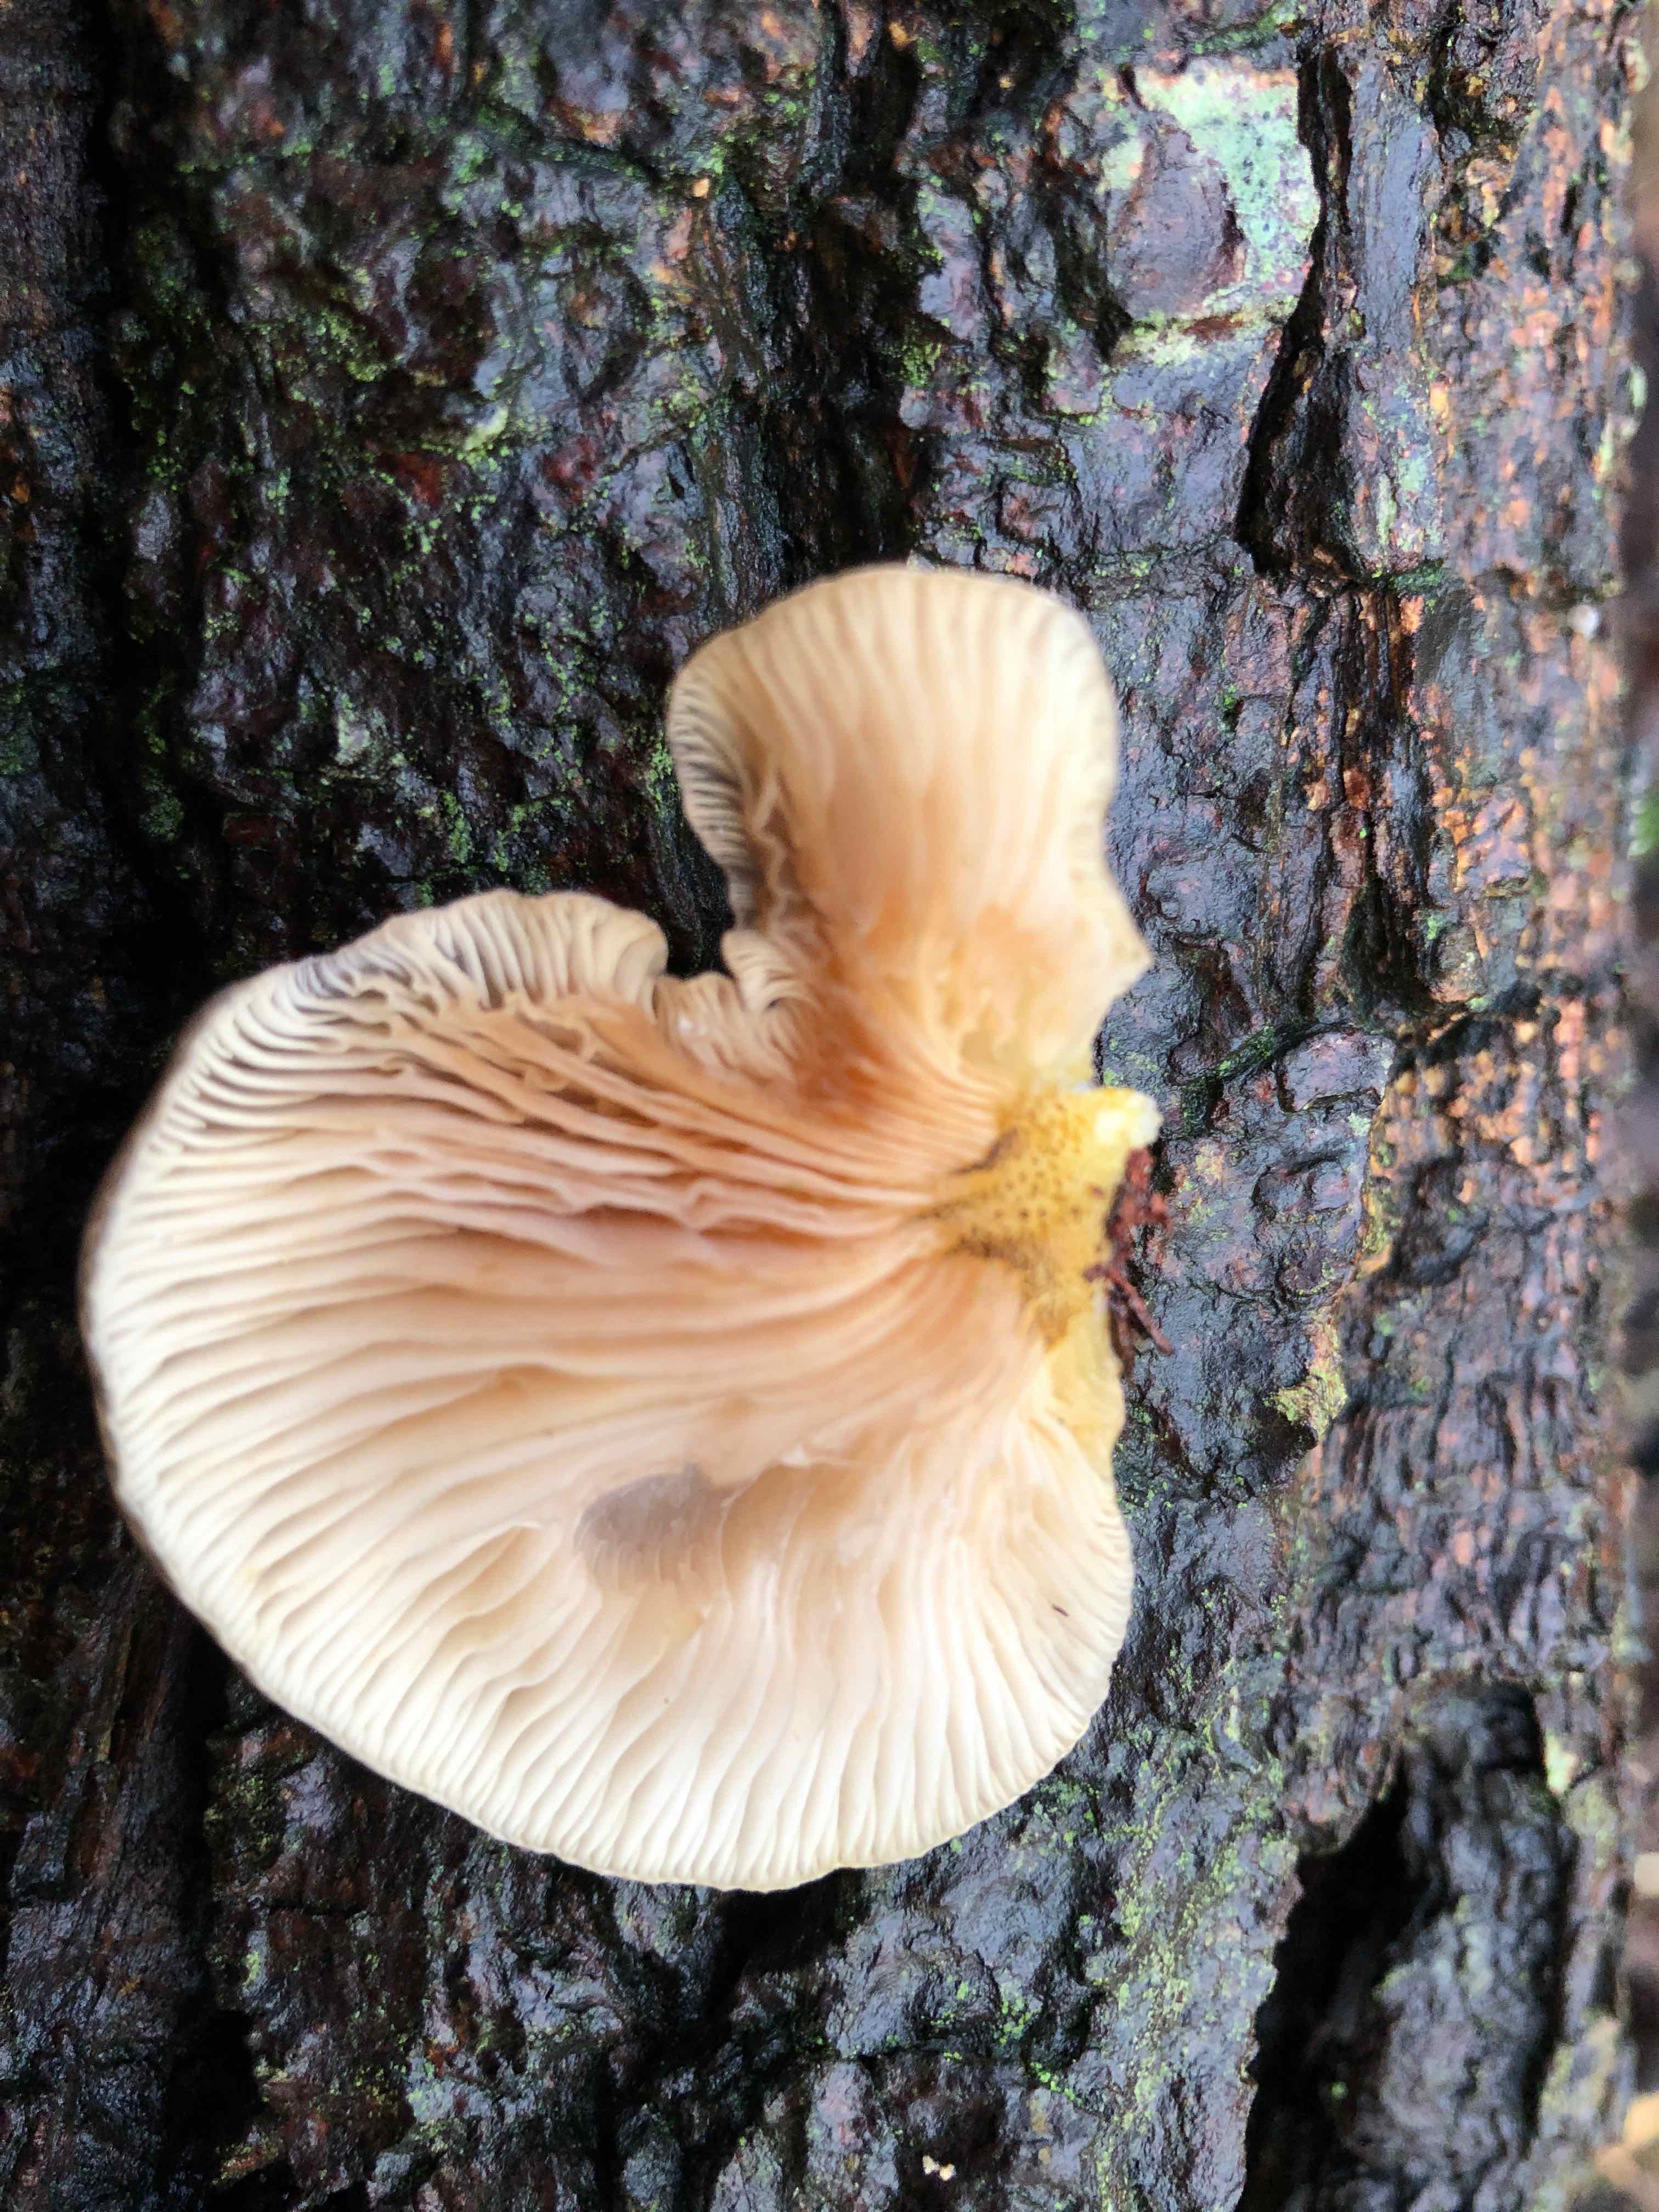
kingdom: Fungi
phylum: Basidiomycota
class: Agaricomycetes
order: Agaricales
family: Sarcomyxaceae
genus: Sarcomyxa
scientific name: Sarcomyxa serotina
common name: gummihat
